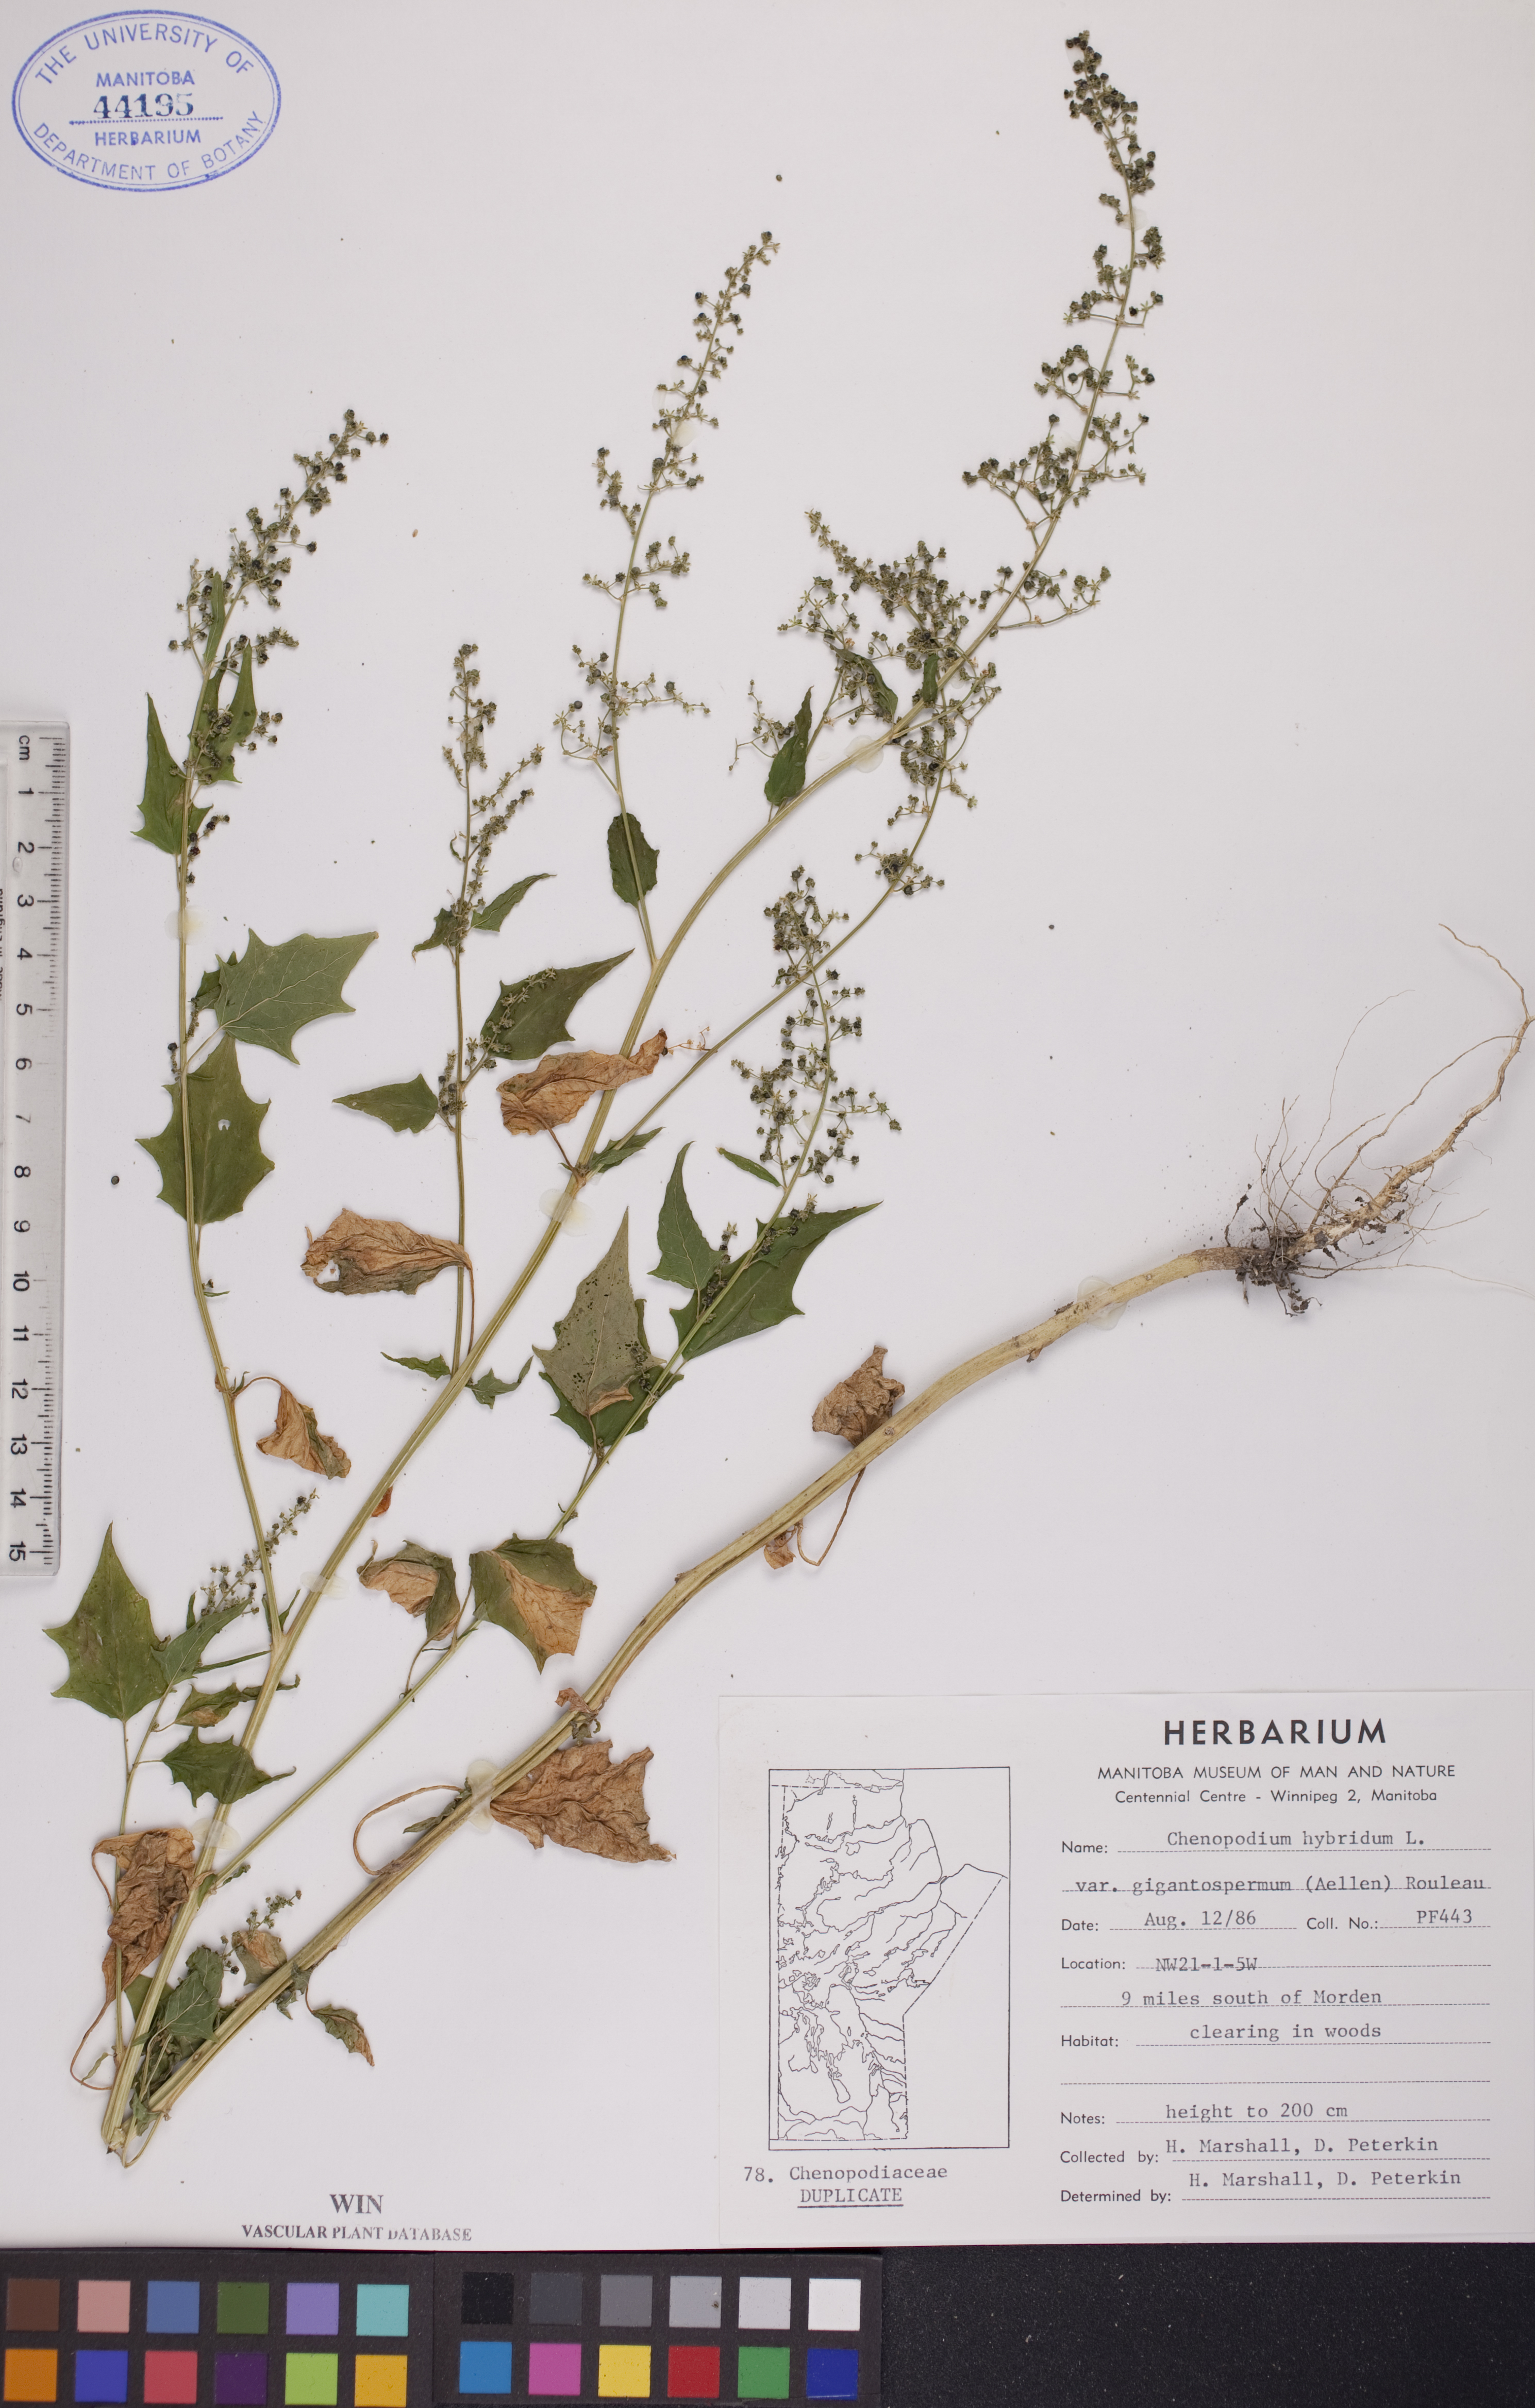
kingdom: Plantae
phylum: Tracheophyta
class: Magnoliopsida
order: Caryophyllales
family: Amaranthaceae
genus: Chenopodiastrum
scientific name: Chenopodiastrum simplex
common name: Large-seed goosefoot
